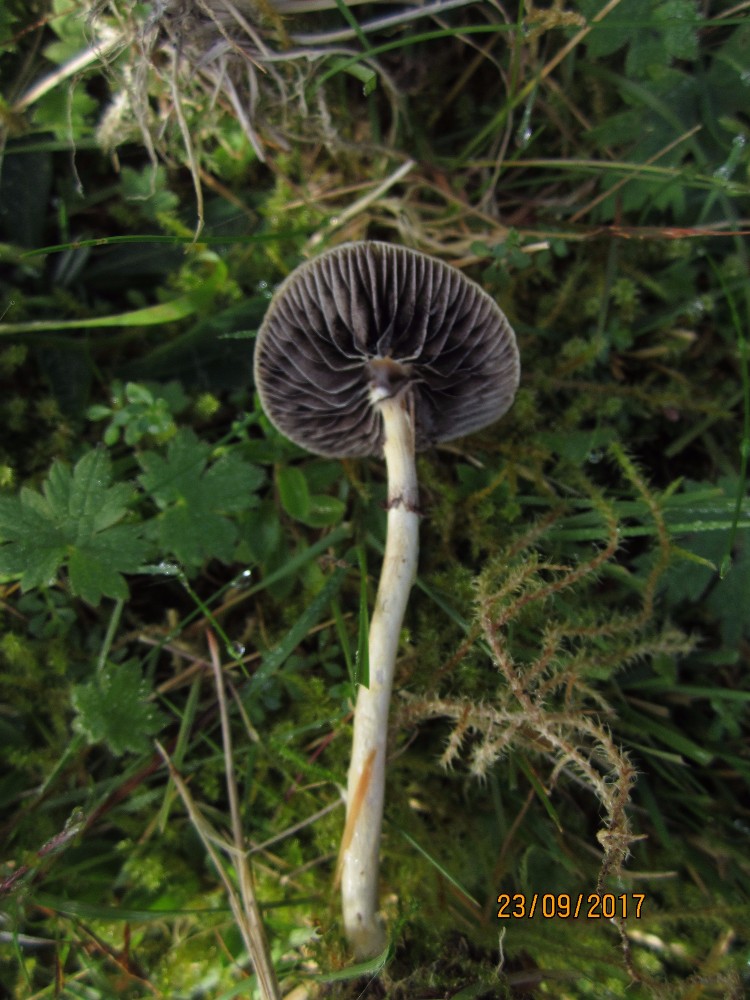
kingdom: Fungi
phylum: Basidiomycota
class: Agaricomycetes
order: Agaricales
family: Strophariaceae
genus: Protostropharia
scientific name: Protostropharia semiglobata
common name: halvkugleformet bredblad
